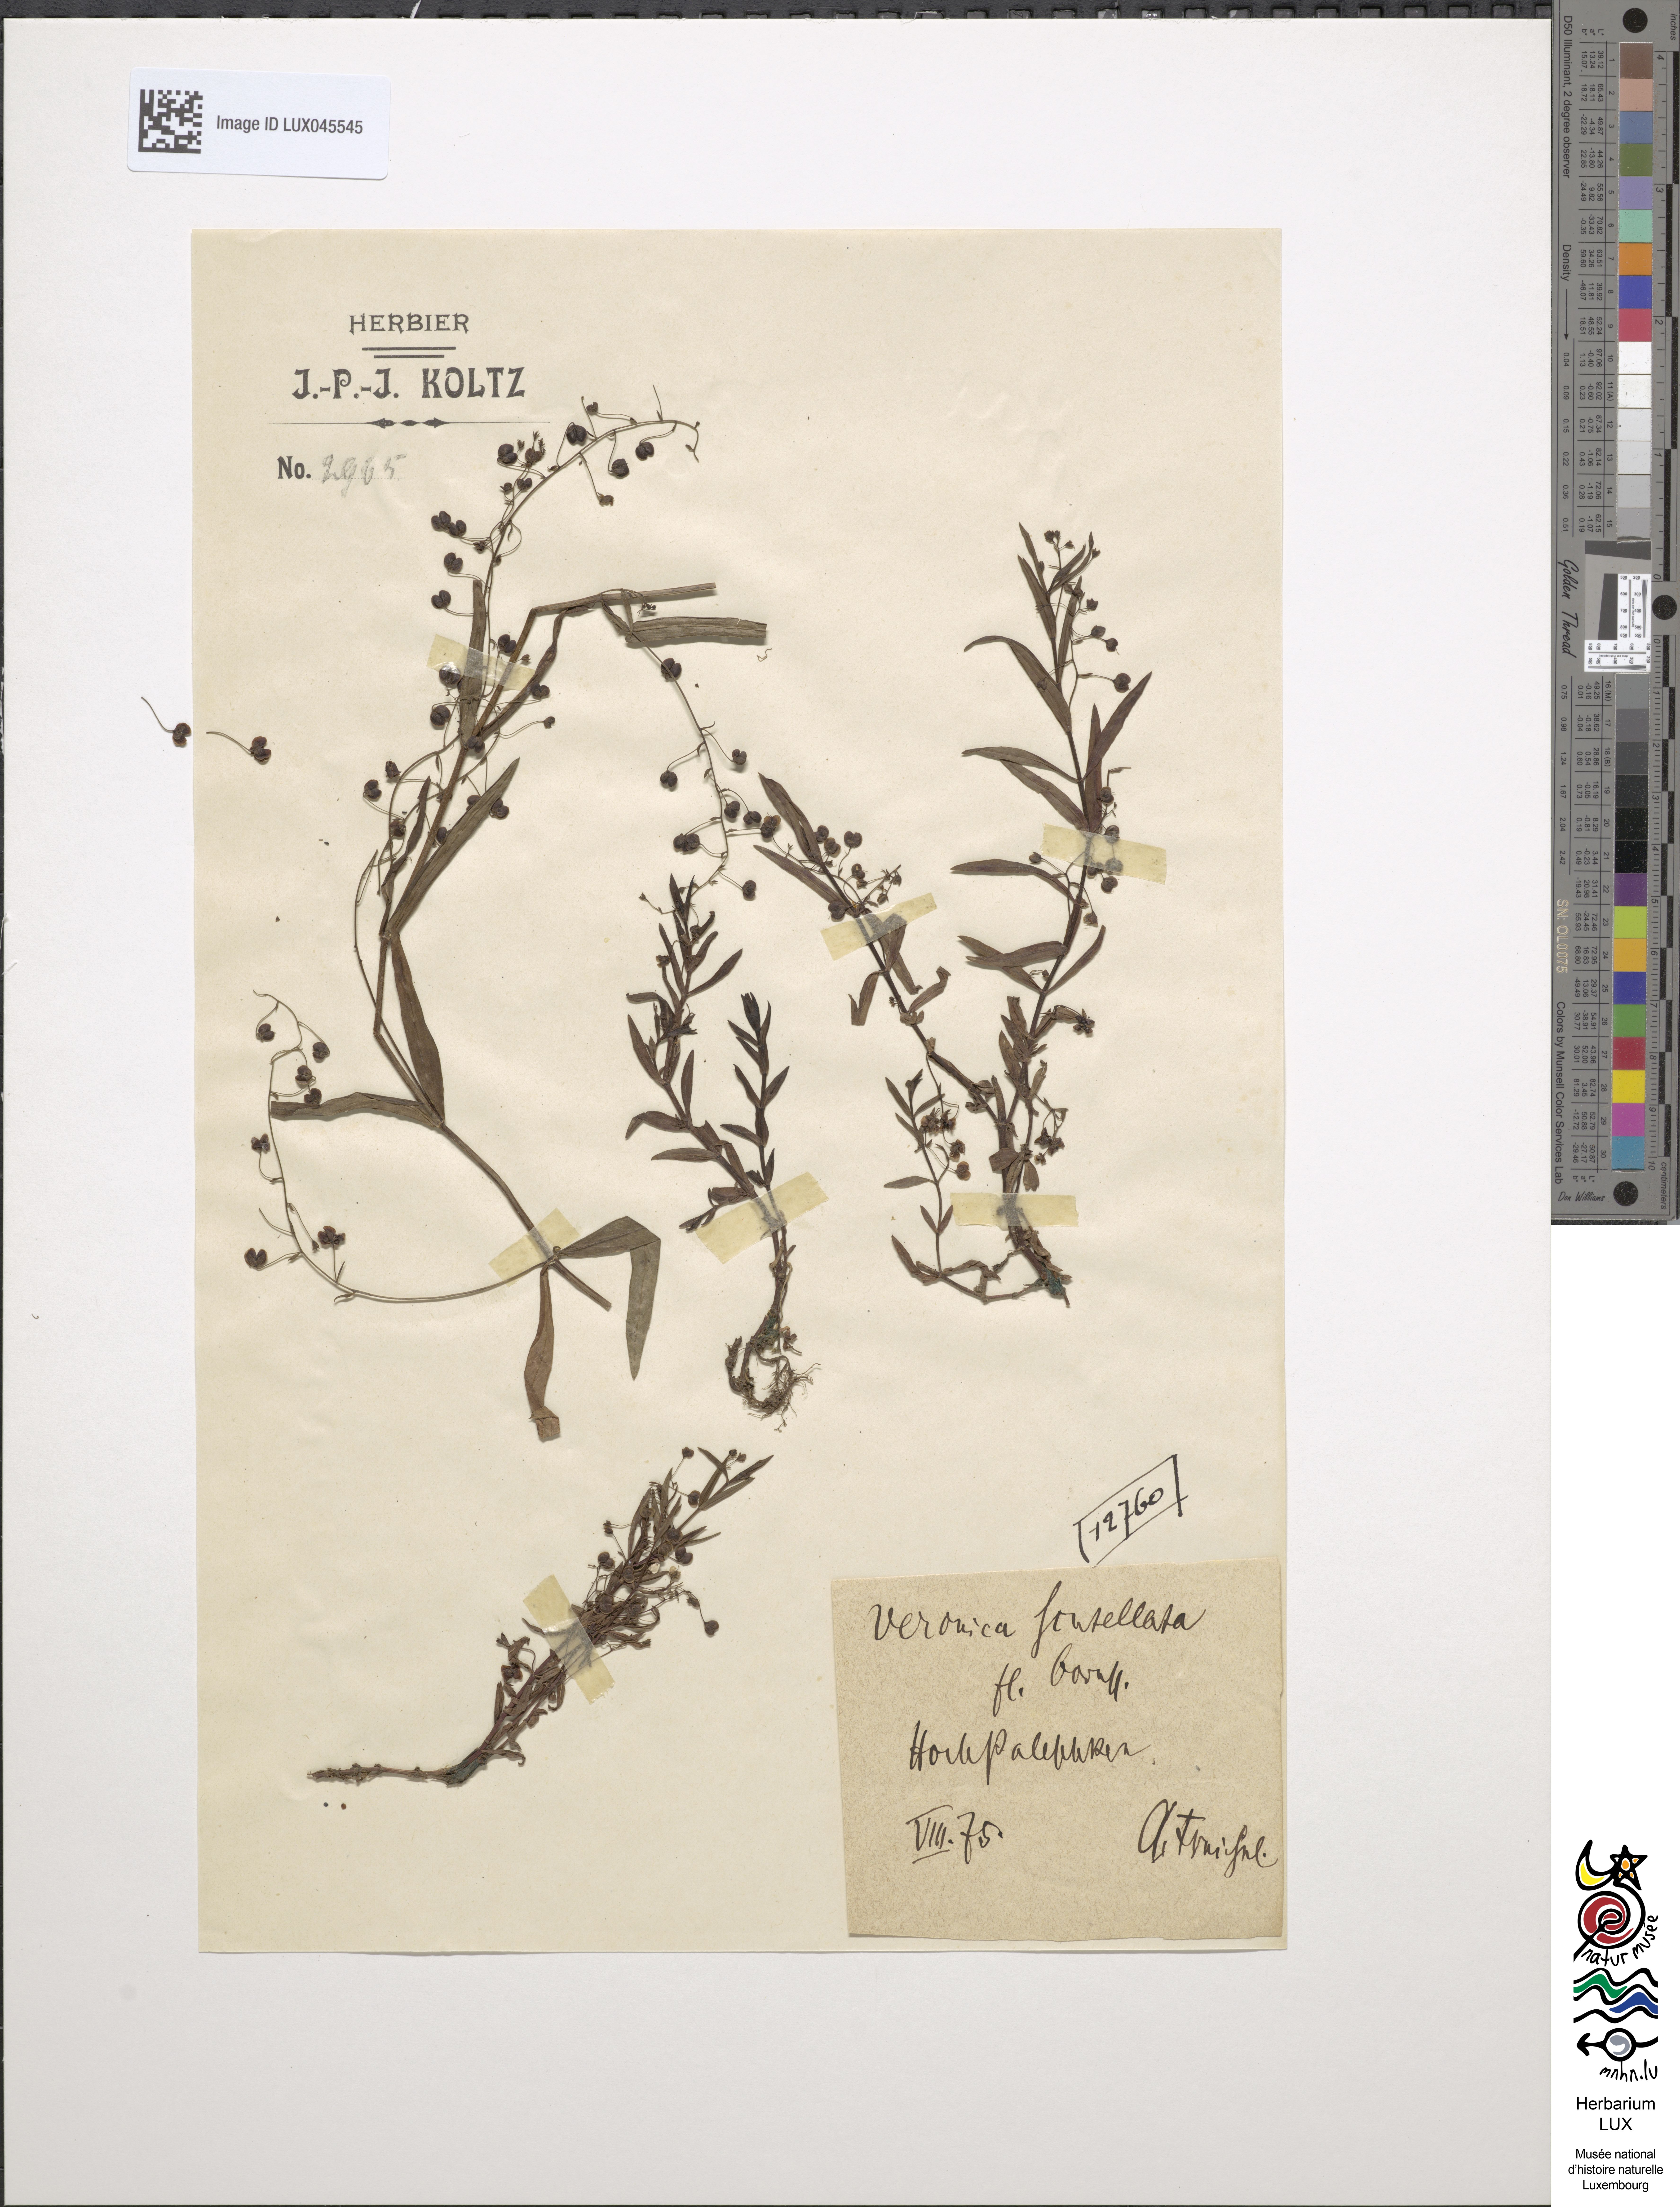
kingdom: Plantae
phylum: Tracheophyta
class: Magnoliopsida
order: Lamiales
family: Plantaginaceae
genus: Veronica
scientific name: Veronica scutellata
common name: Marsh speedwell
